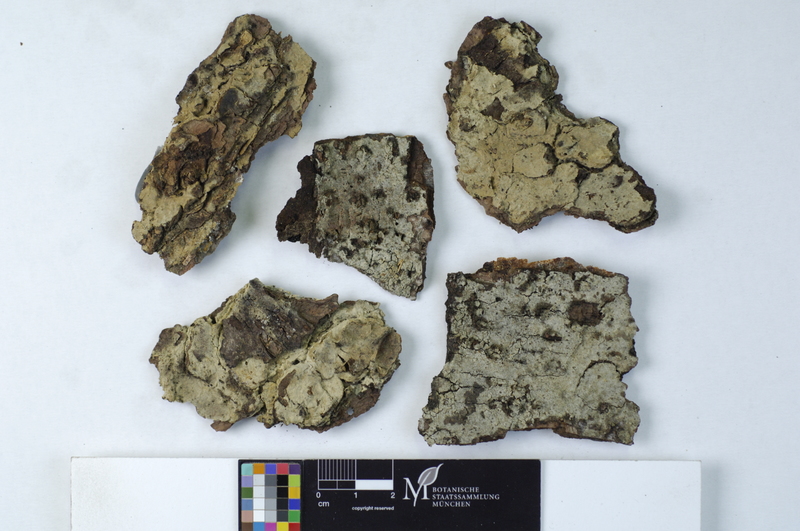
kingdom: Fungi
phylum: Basidiomycota
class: Agaricomycetes
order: Cantharellales
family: Botryobasidiaceae
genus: Botryobasidium
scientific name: Botryobasidium vagum
